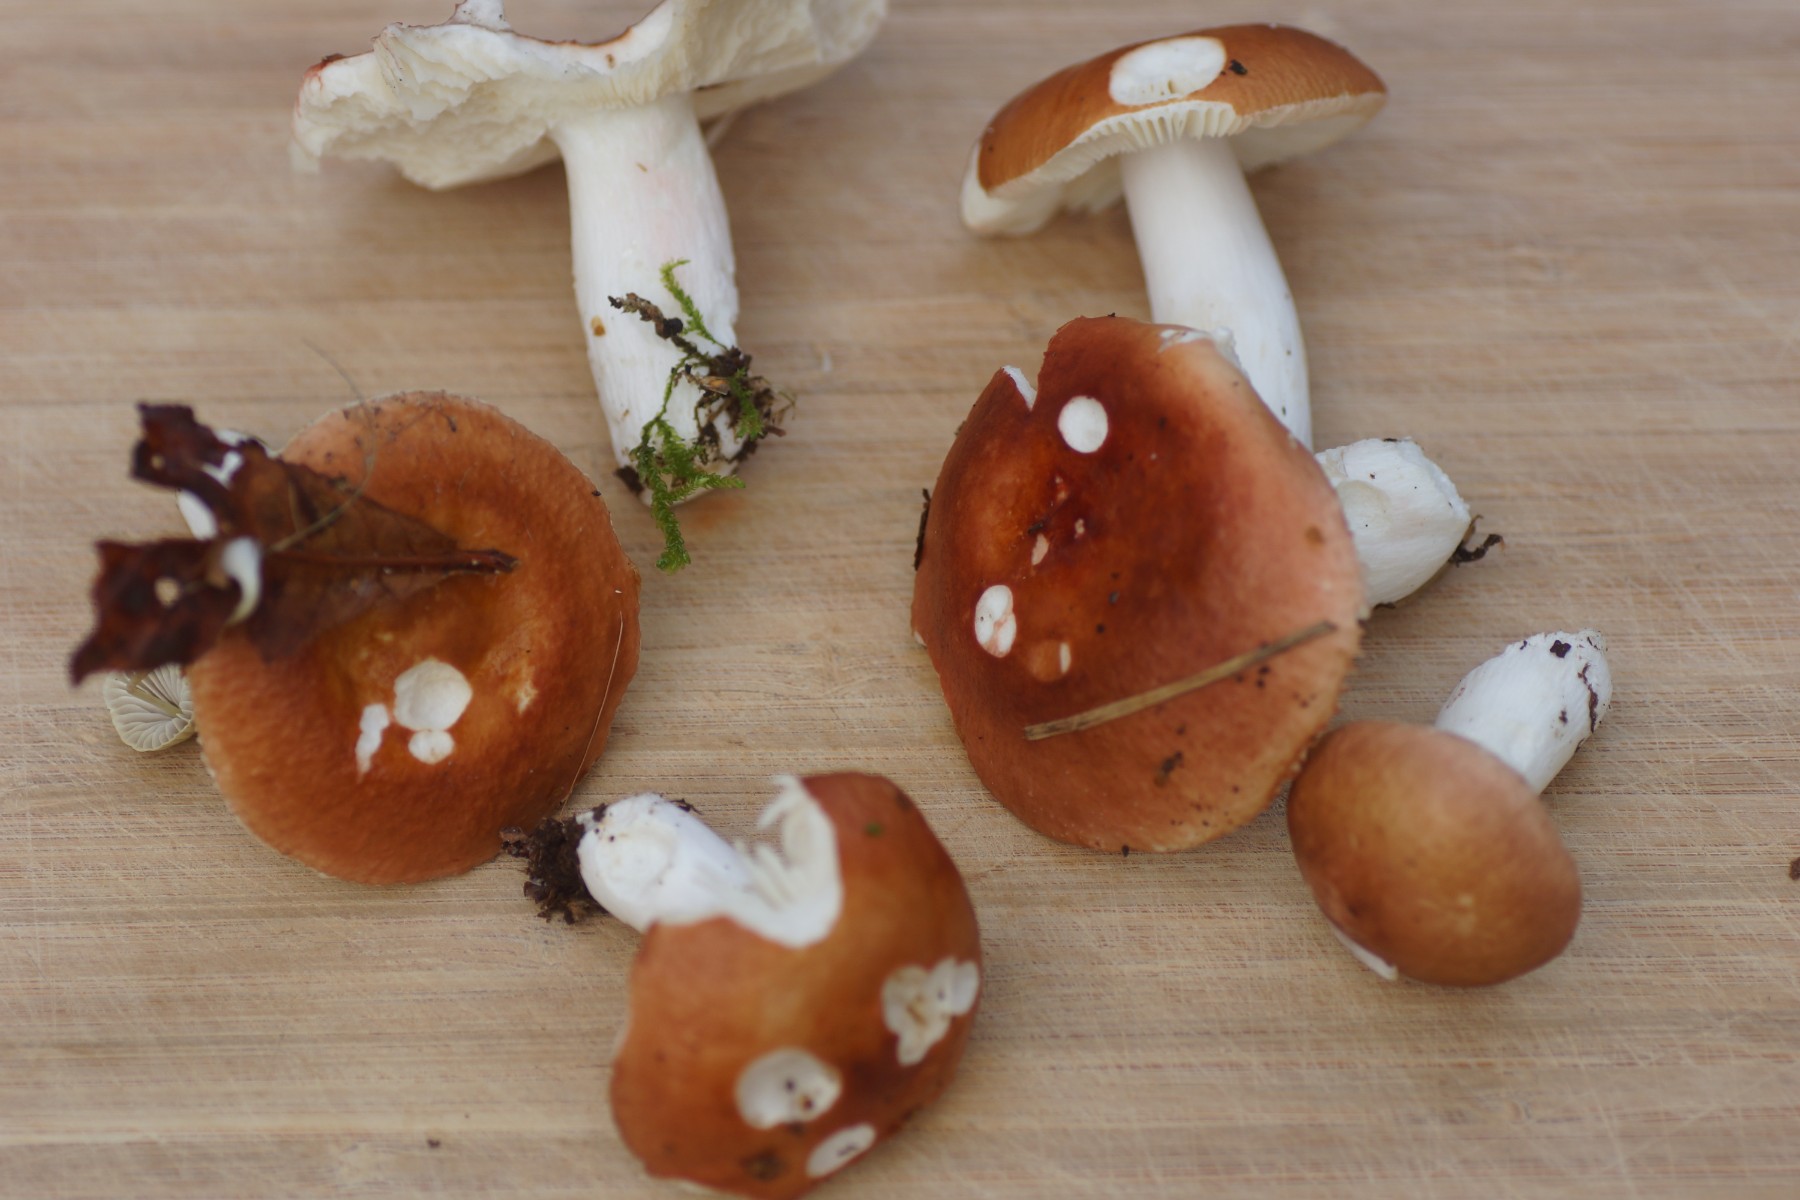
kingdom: Fungi
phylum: Basidiomycota
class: Agaricomycetes
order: Russulales
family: Russulaceae
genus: Russula
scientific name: Russula velenovskyi
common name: orangerød skørhat
